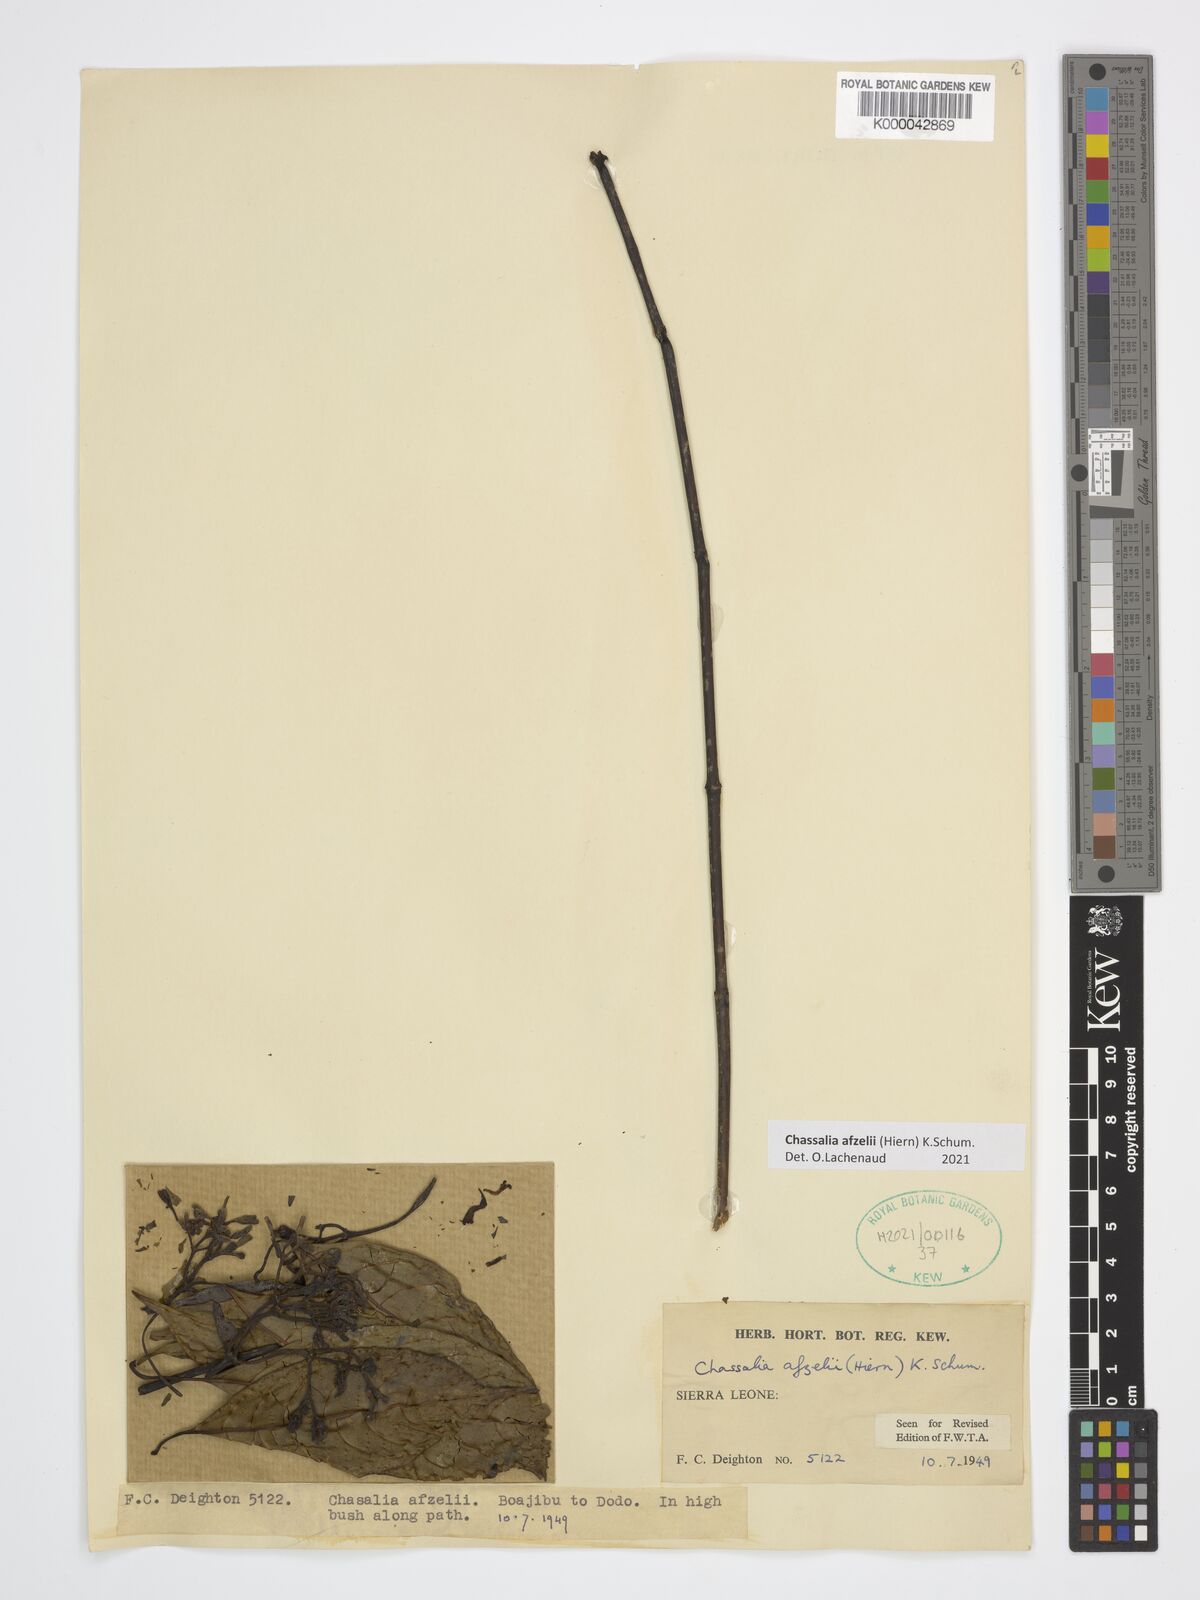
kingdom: Plantae
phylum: Tracheophyta
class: Magnoliopsida
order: Gentianales
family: Rubiaceae
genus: Chassalia
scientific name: Chassalia afzelii
